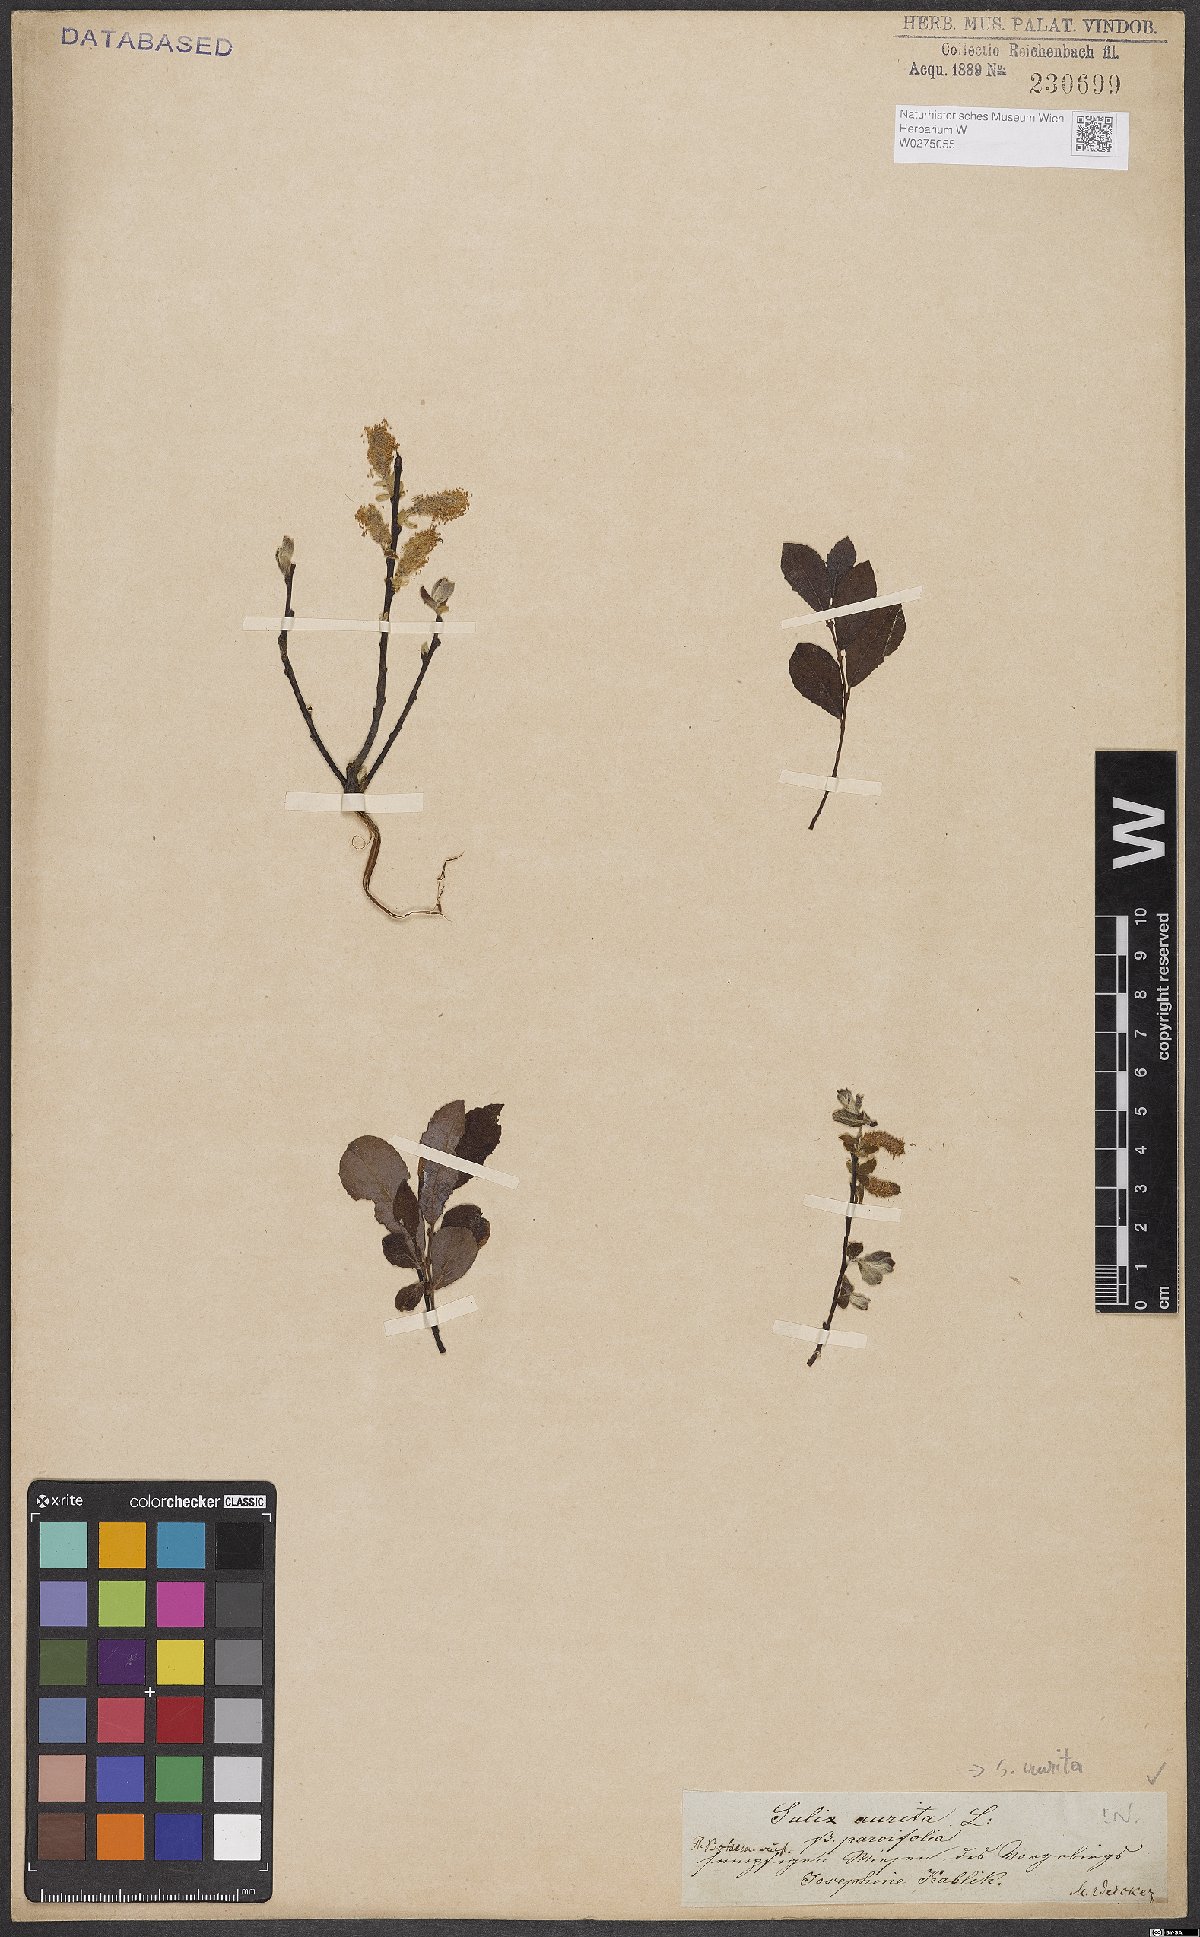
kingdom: Plantae
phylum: Tracheophyta
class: Magnoliopsida
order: Malpighiales
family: Salicaceae
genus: Salix
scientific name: Salix aurita
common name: Eared willow
